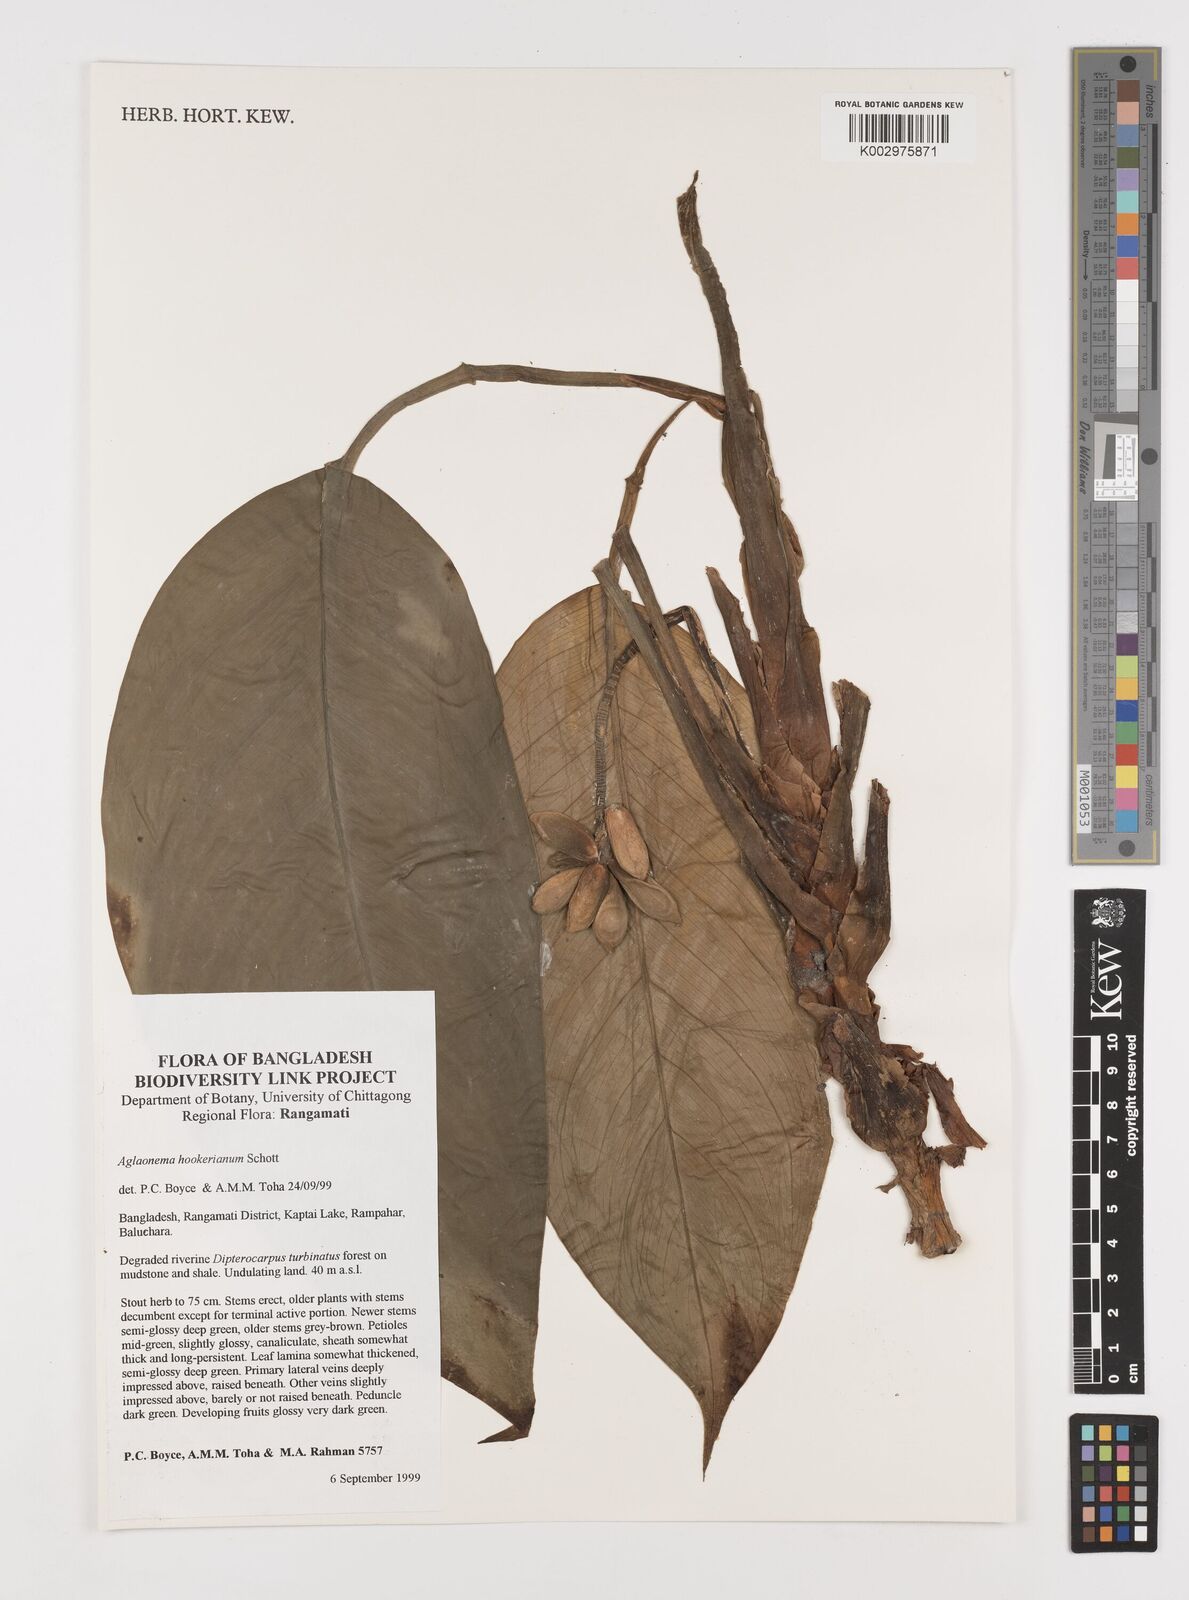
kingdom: Plantae
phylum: Tracheophyta
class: Liliopsida
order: Alismatales
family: Araceae
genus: Aglaonema
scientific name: Aglaonema hookerianum
